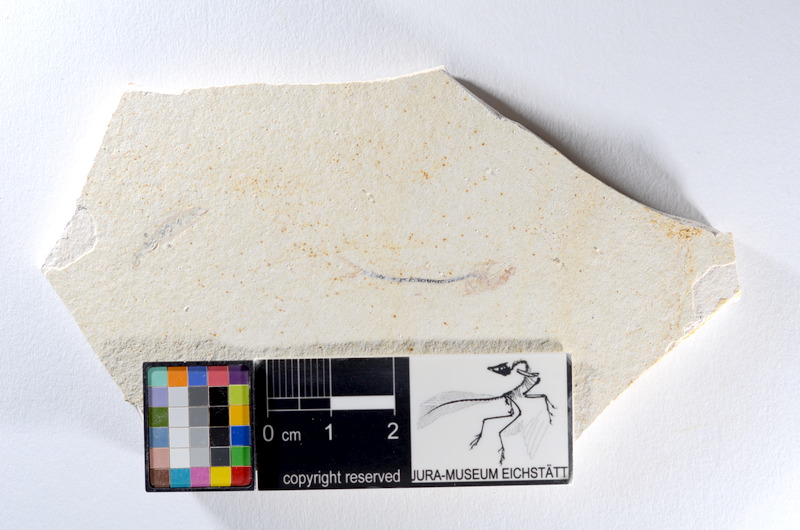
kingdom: Animalia
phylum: Chordata
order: Salmoniformes
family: Orthogonikleithridae
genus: Orthogonikleithrus
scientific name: Orthogonikleithrus hoelli
